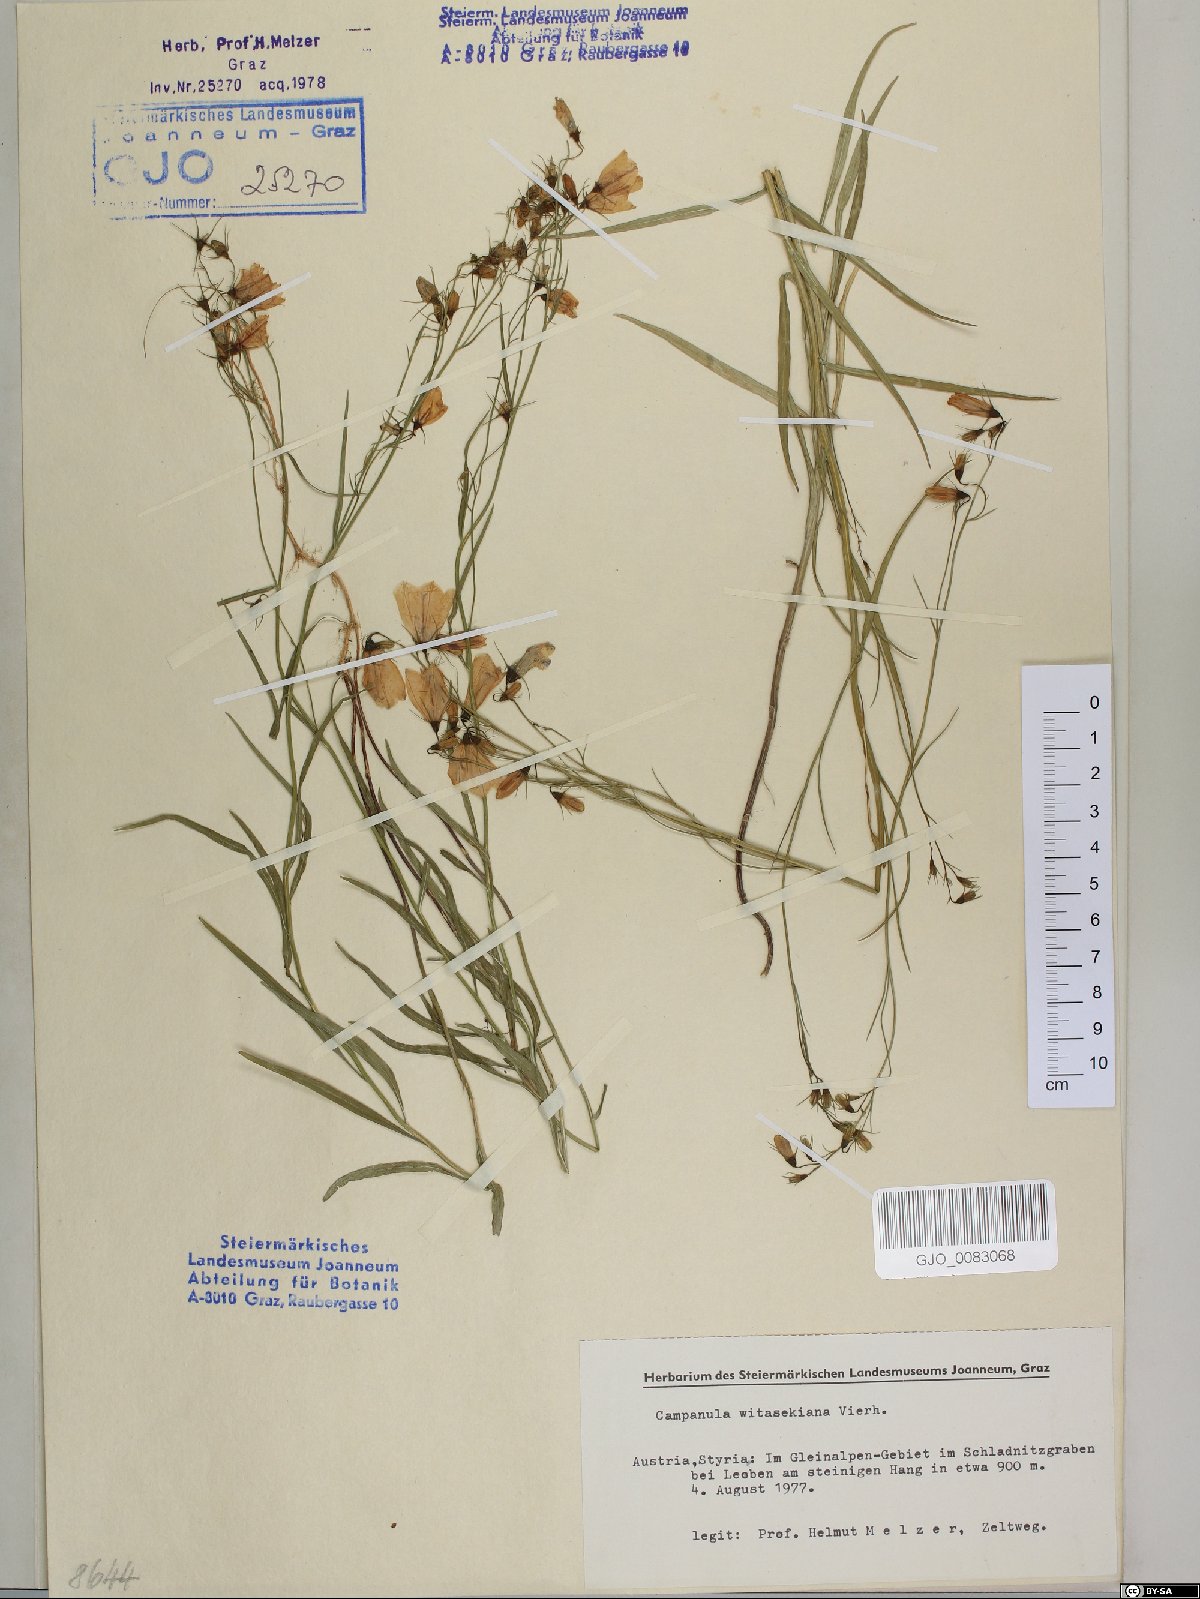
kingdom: Plantae
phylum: Tracheophyta
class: Magnoliopsida
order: Asterales
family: Campanulaceae
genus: Campanula
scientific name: Campanula witasekiana
